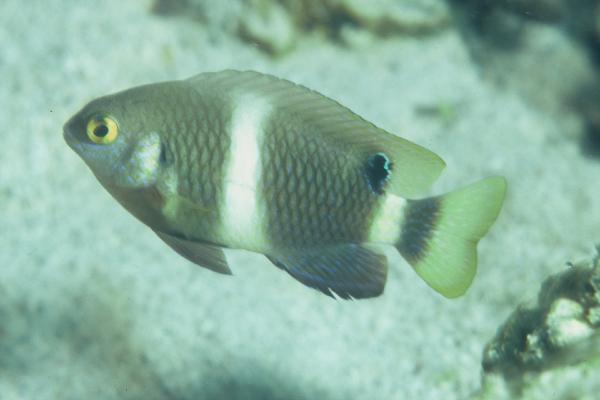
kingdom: Animalia
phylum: Chordata
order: Perciformes
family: Pomacentridae
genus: Chrysiptera
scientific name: Chrysiptera brownriggii
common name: Surge demoiselle
